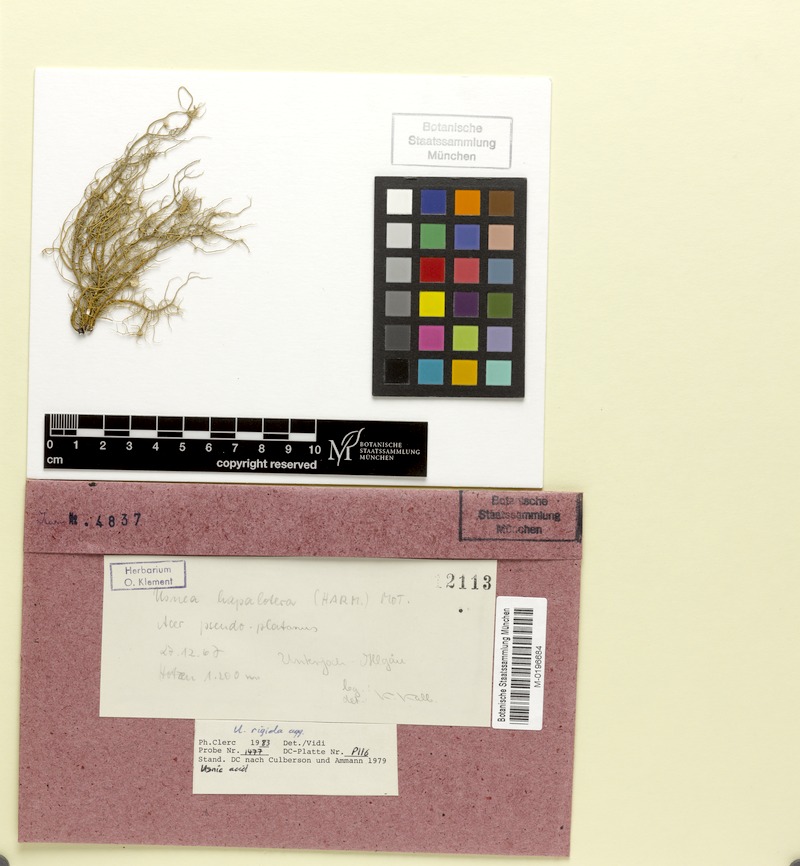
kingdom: Fungi
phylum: Ascomycota
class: Lecanoromycetes
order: Lecanorales
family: Parmeliaceae
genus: Usnea
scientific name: Usnea quasirigida
